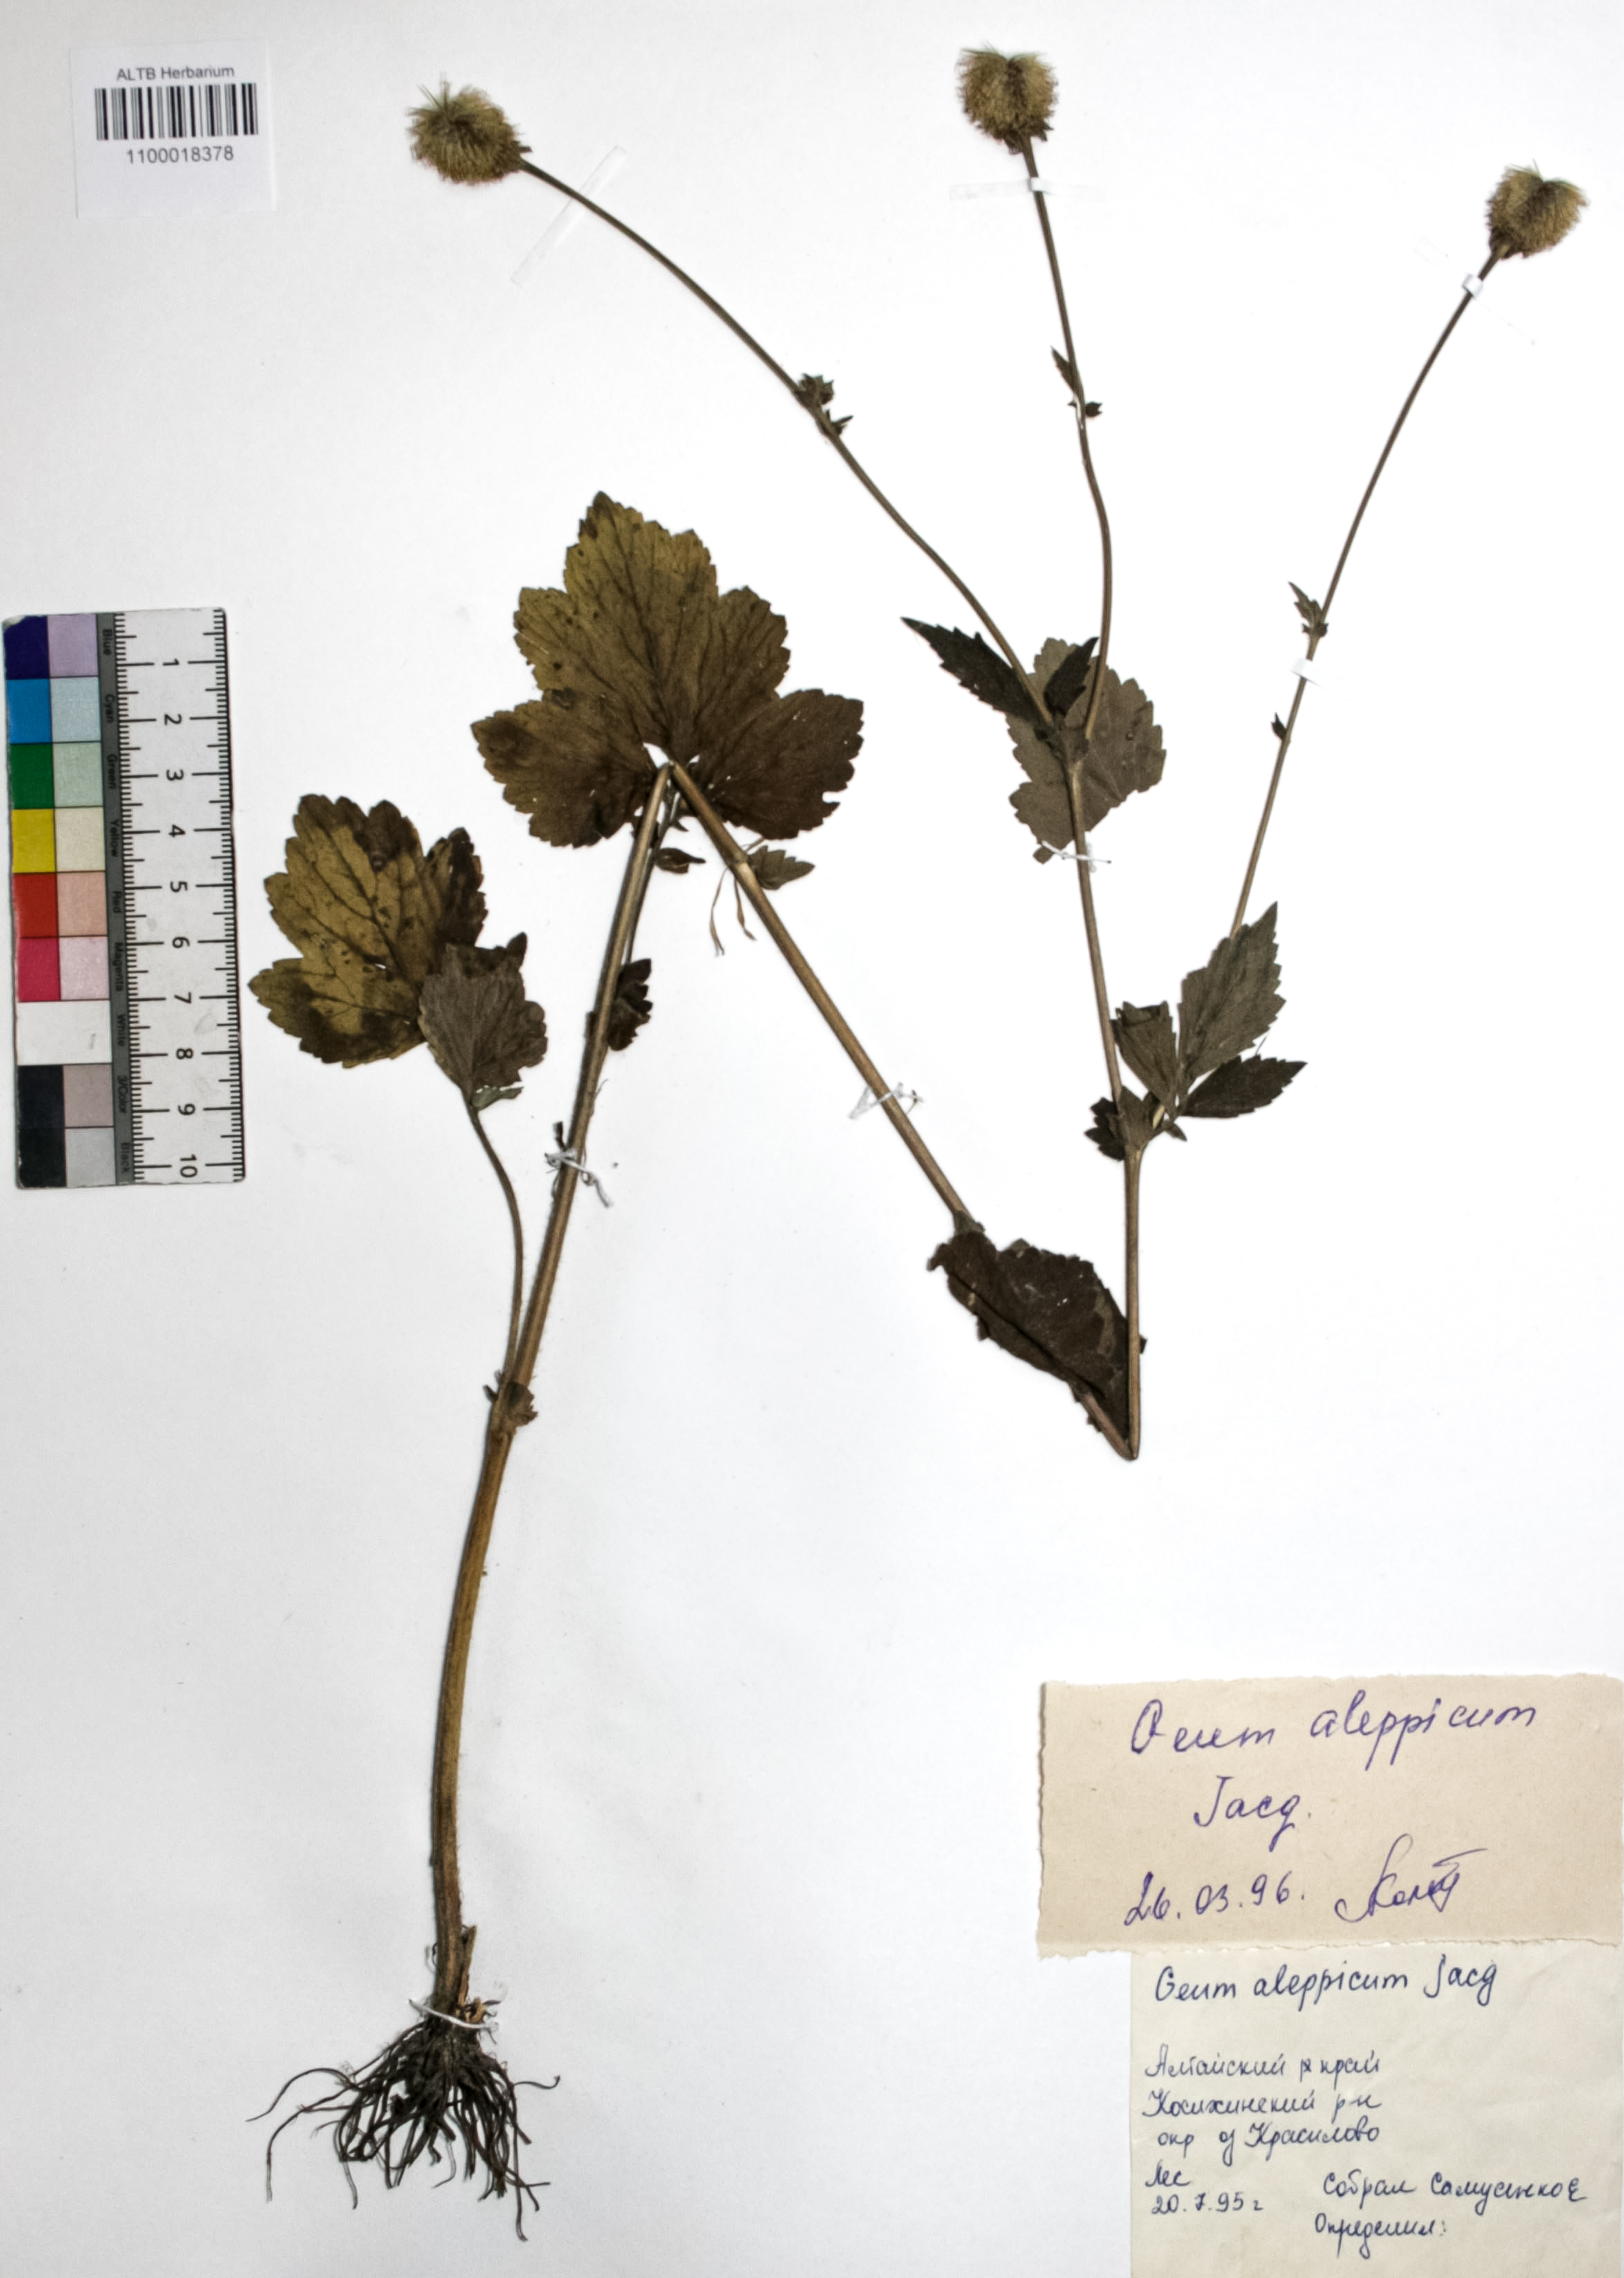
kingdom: Plantae
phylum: Tracheophyta
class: Magnoliopsida
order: Rosales
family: Rosaceae
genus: Geum
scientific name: Geum aleppicum
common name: Yellow avens
